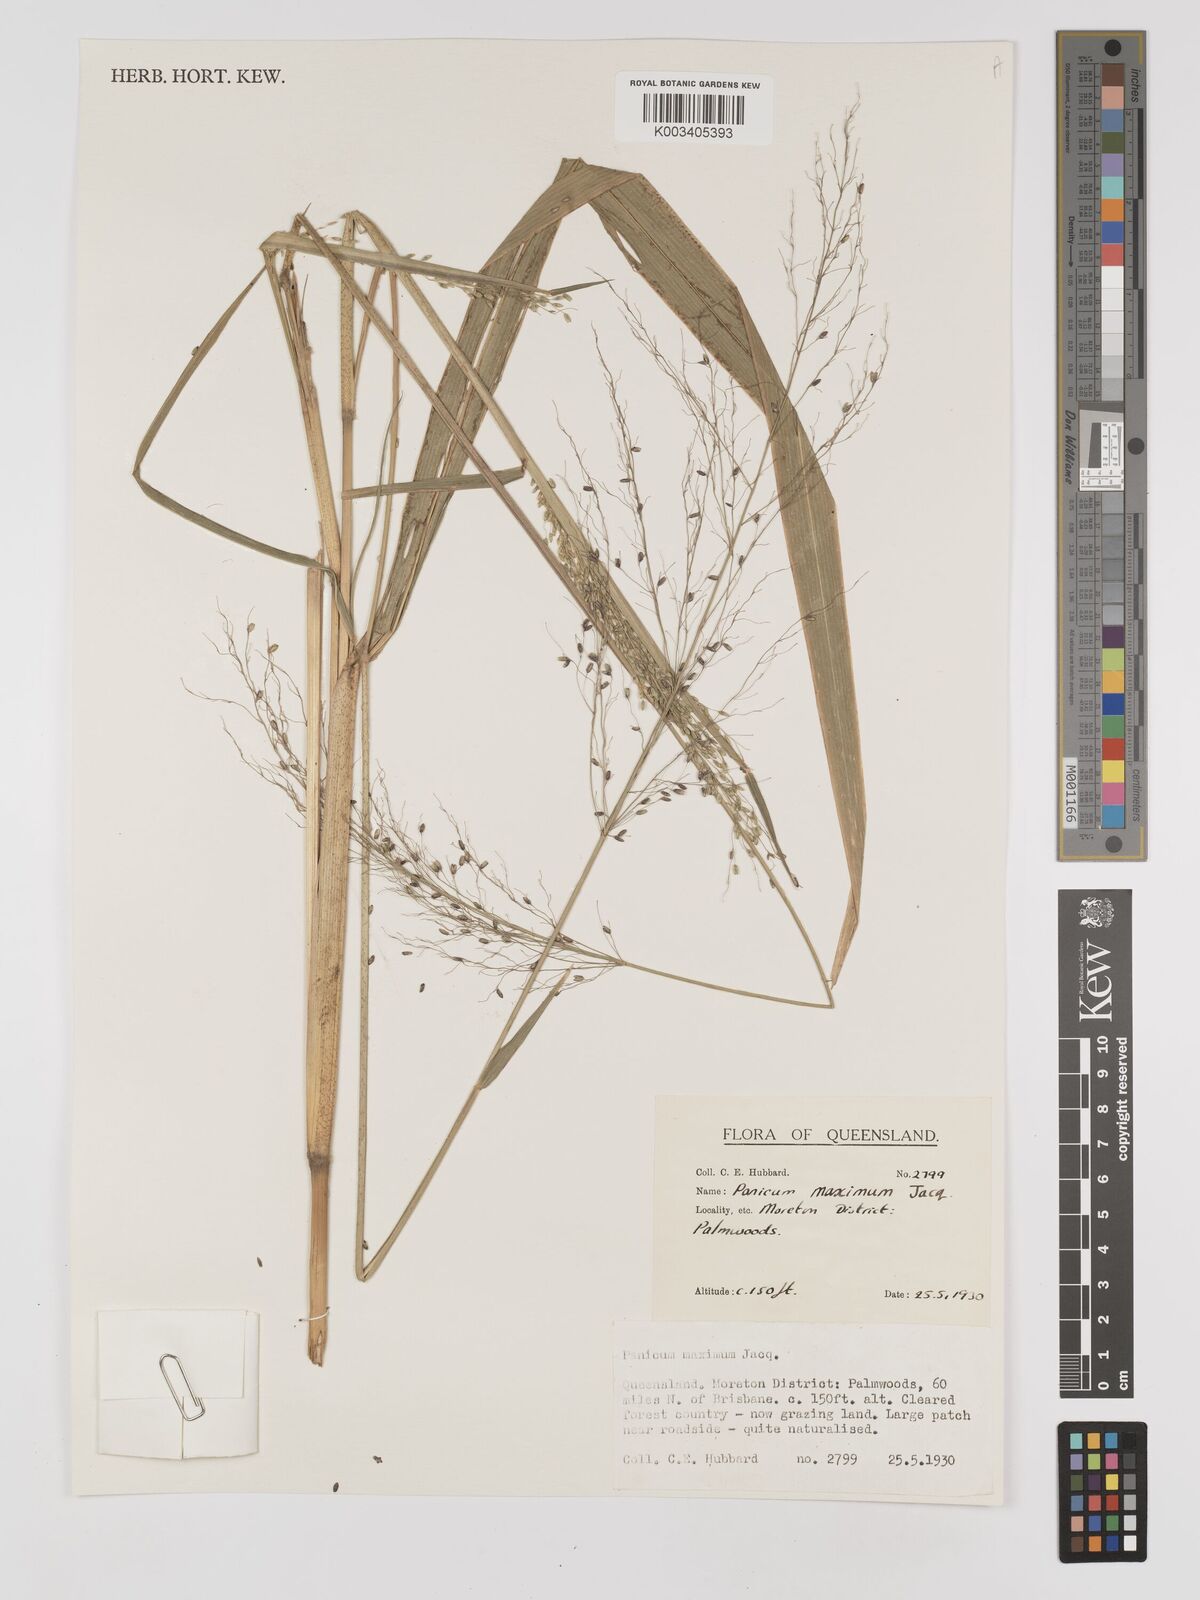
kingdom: Plantae
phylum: Tracheophyta
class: Liliopsida
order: Poales
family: Poaceae
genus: Megathyrsus
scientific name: Megathyrsus maximus
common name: Guineagrass
